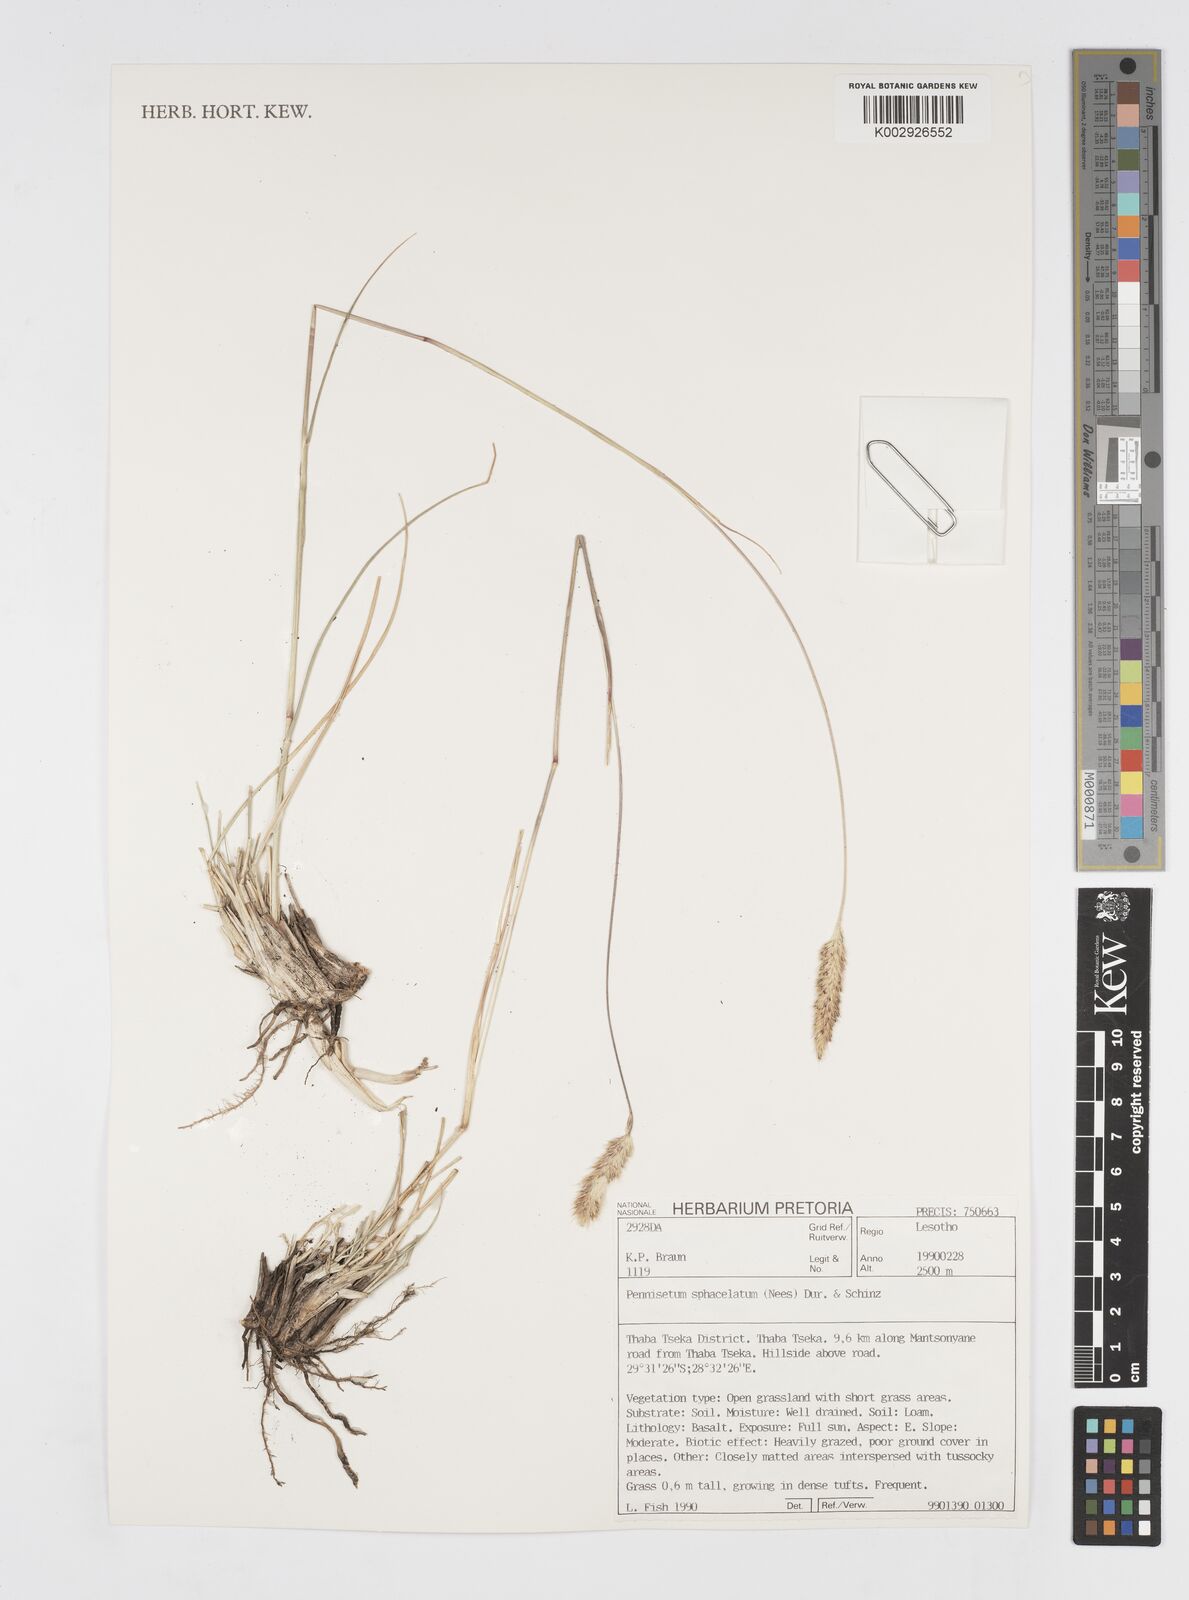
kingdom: Plantae
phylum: Tracheophyta
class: Liliopsida
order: Poales
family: Poaceae
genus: Cenchrus
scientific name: Cenchrus sphacelatus
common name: Bulgras
